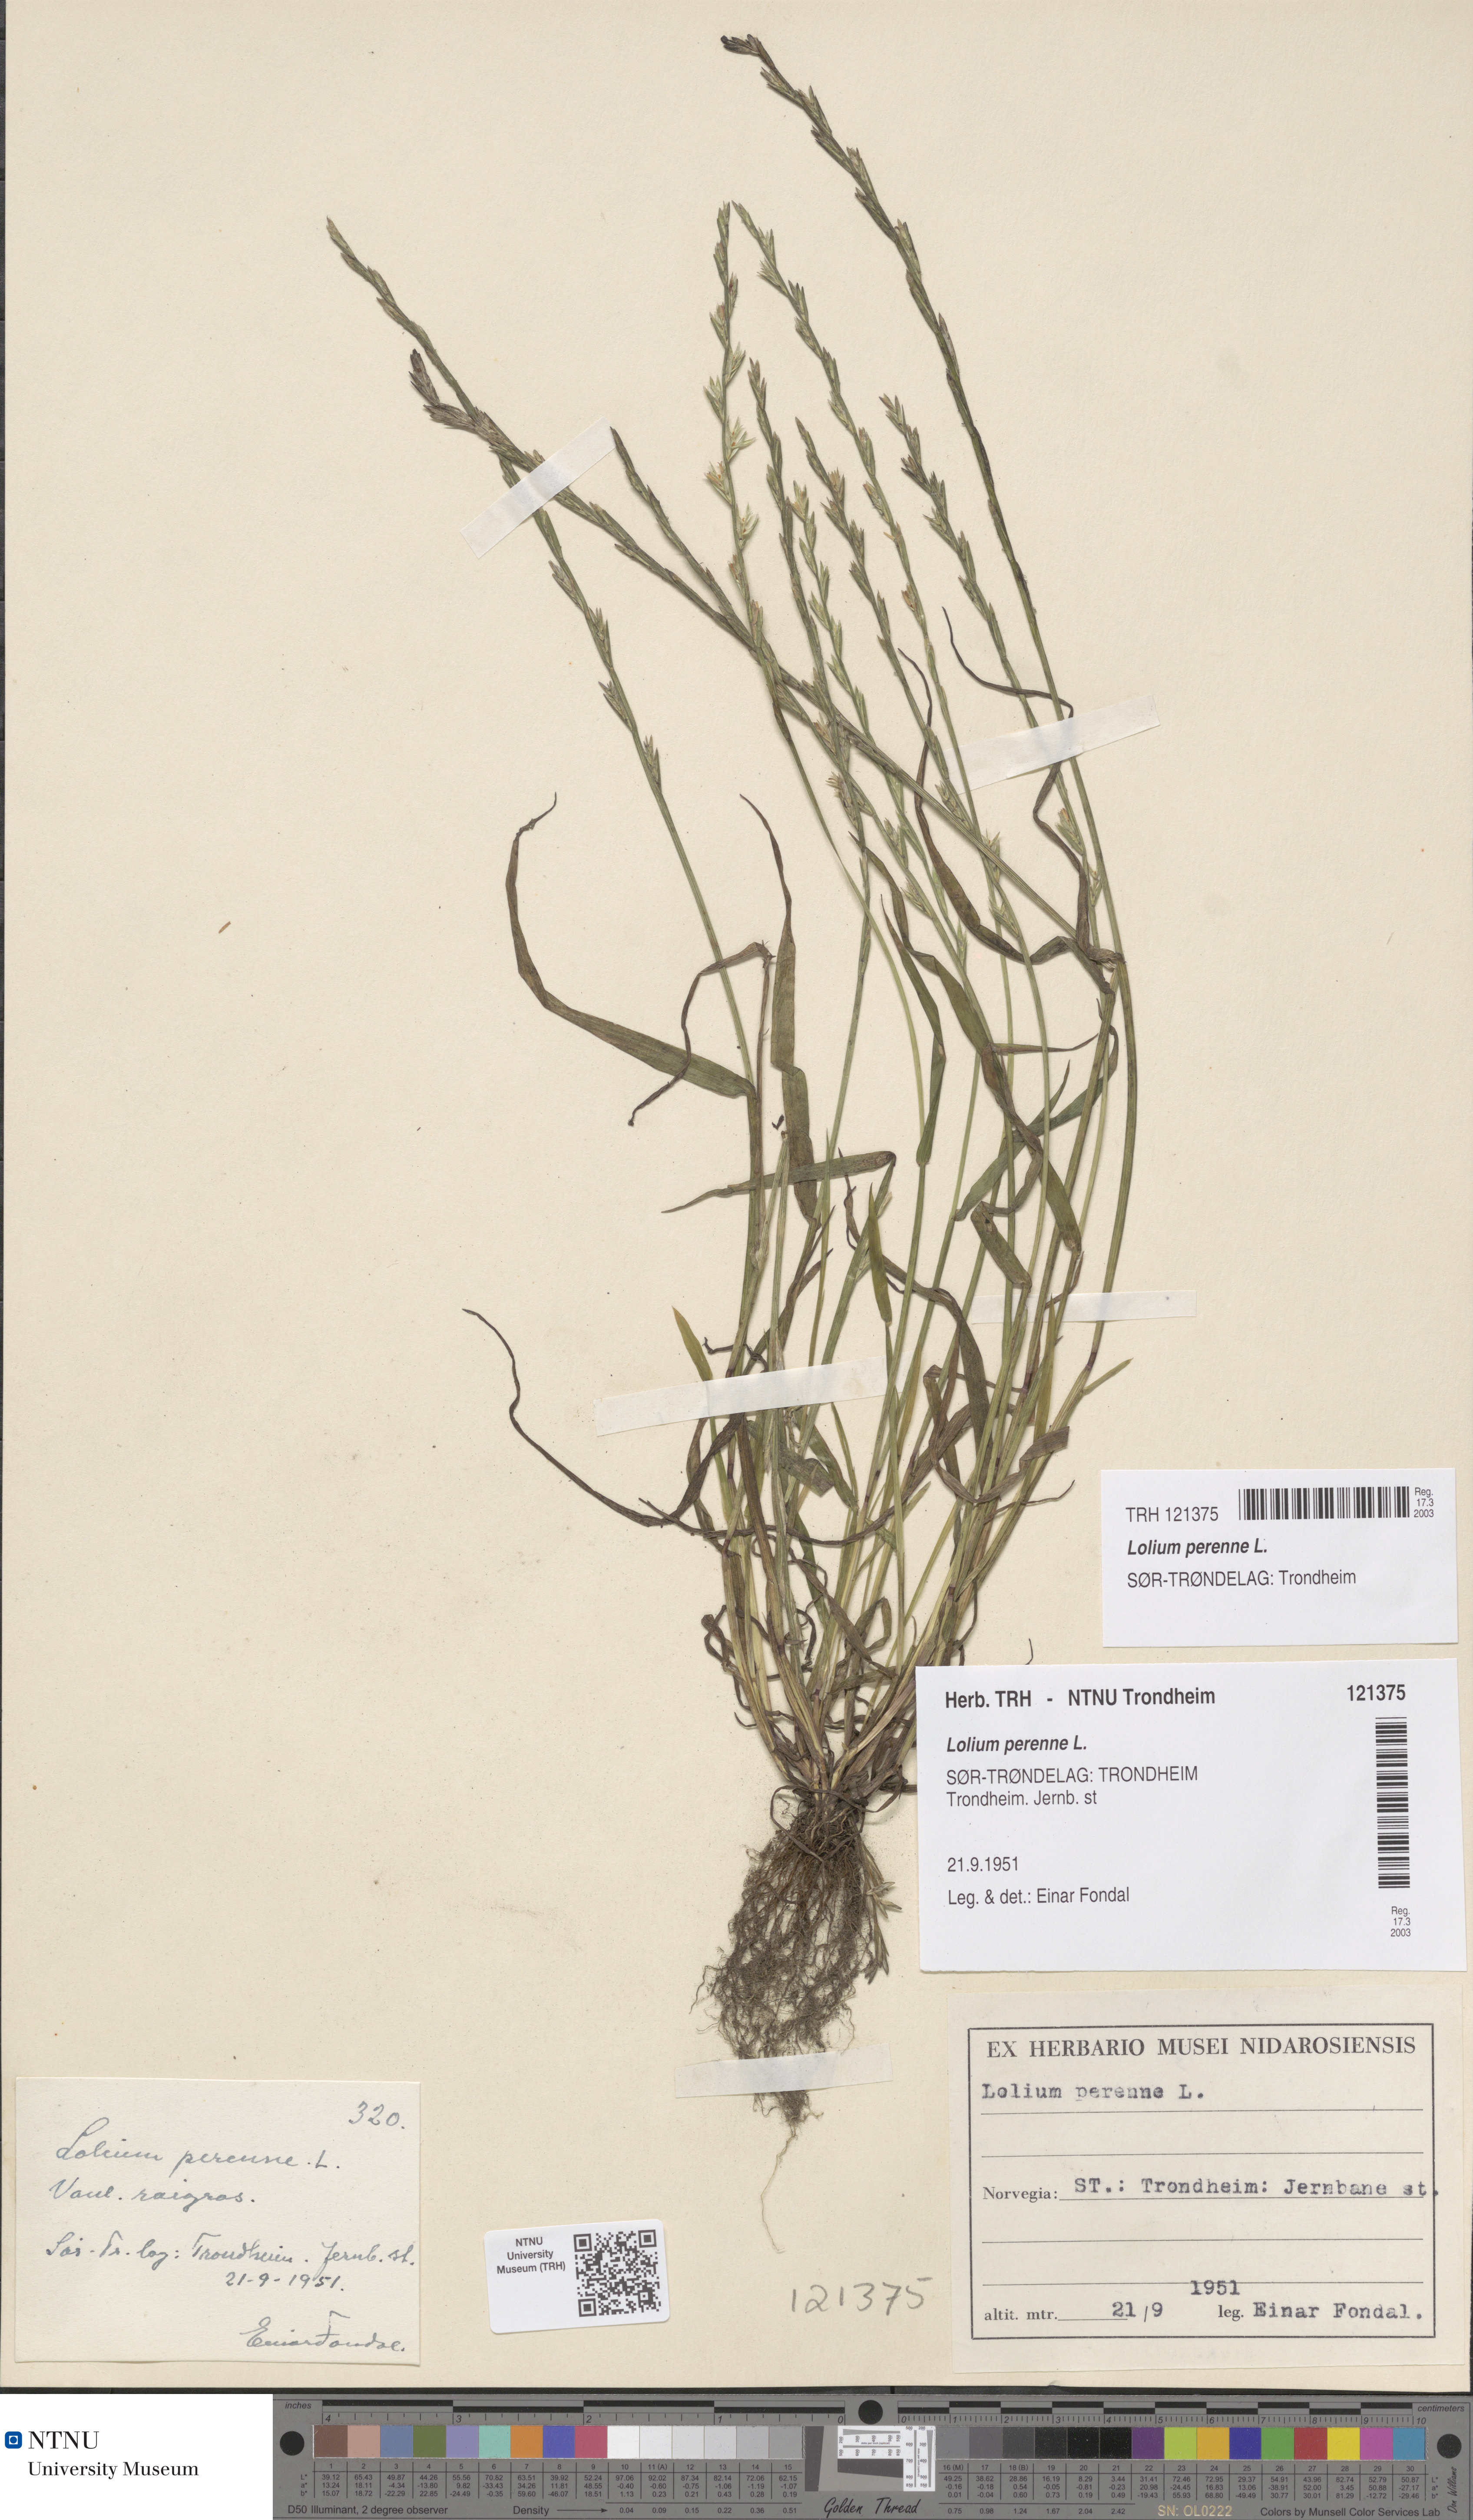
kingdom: Plantae
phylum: Tracheophyta
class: Liliopsida
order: Poales
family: Poaceae
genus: Lolium
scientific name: Lolium perenne
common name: Perennial ryegrass
